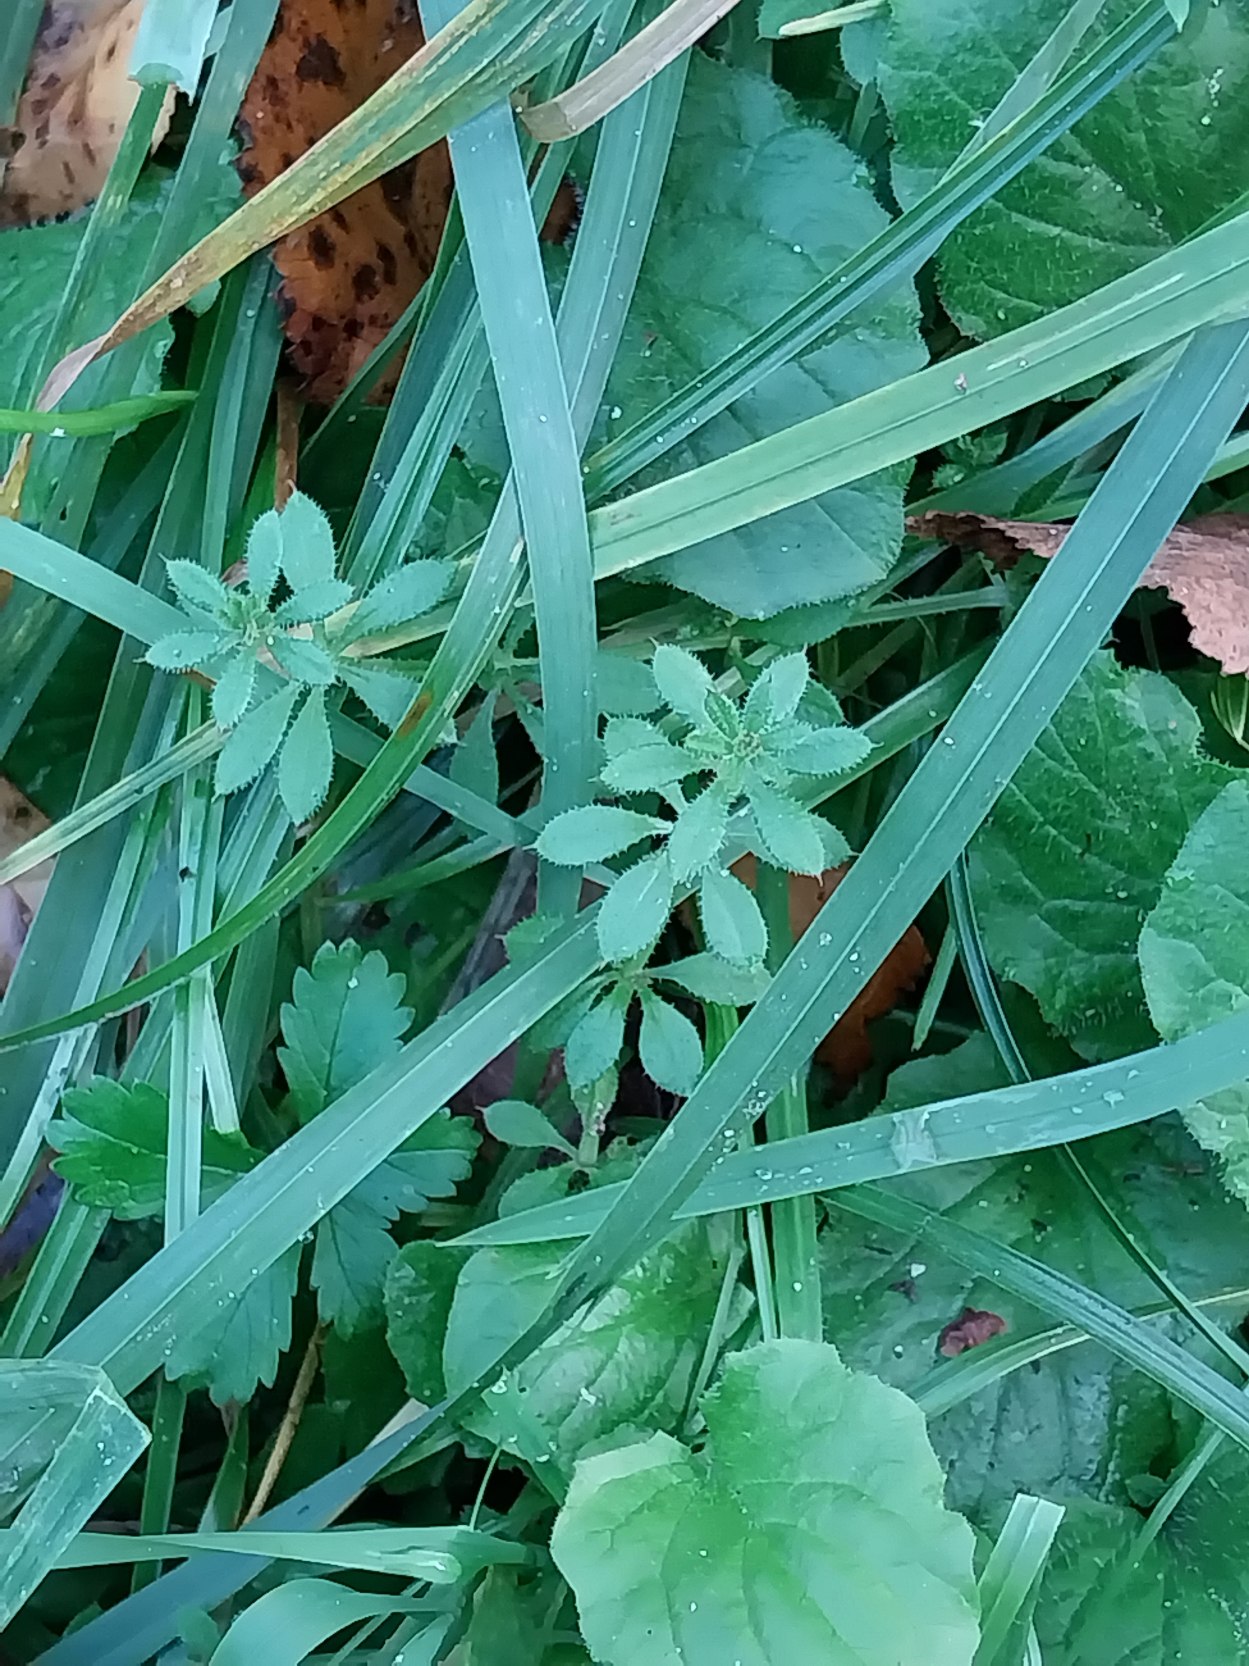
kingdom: Plantae
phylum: Tracheophyta
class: Magnoliopsida
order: Gentianales
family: Rubiaceae
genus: Galium
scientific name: Galium aparine
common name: Burre-snerre
